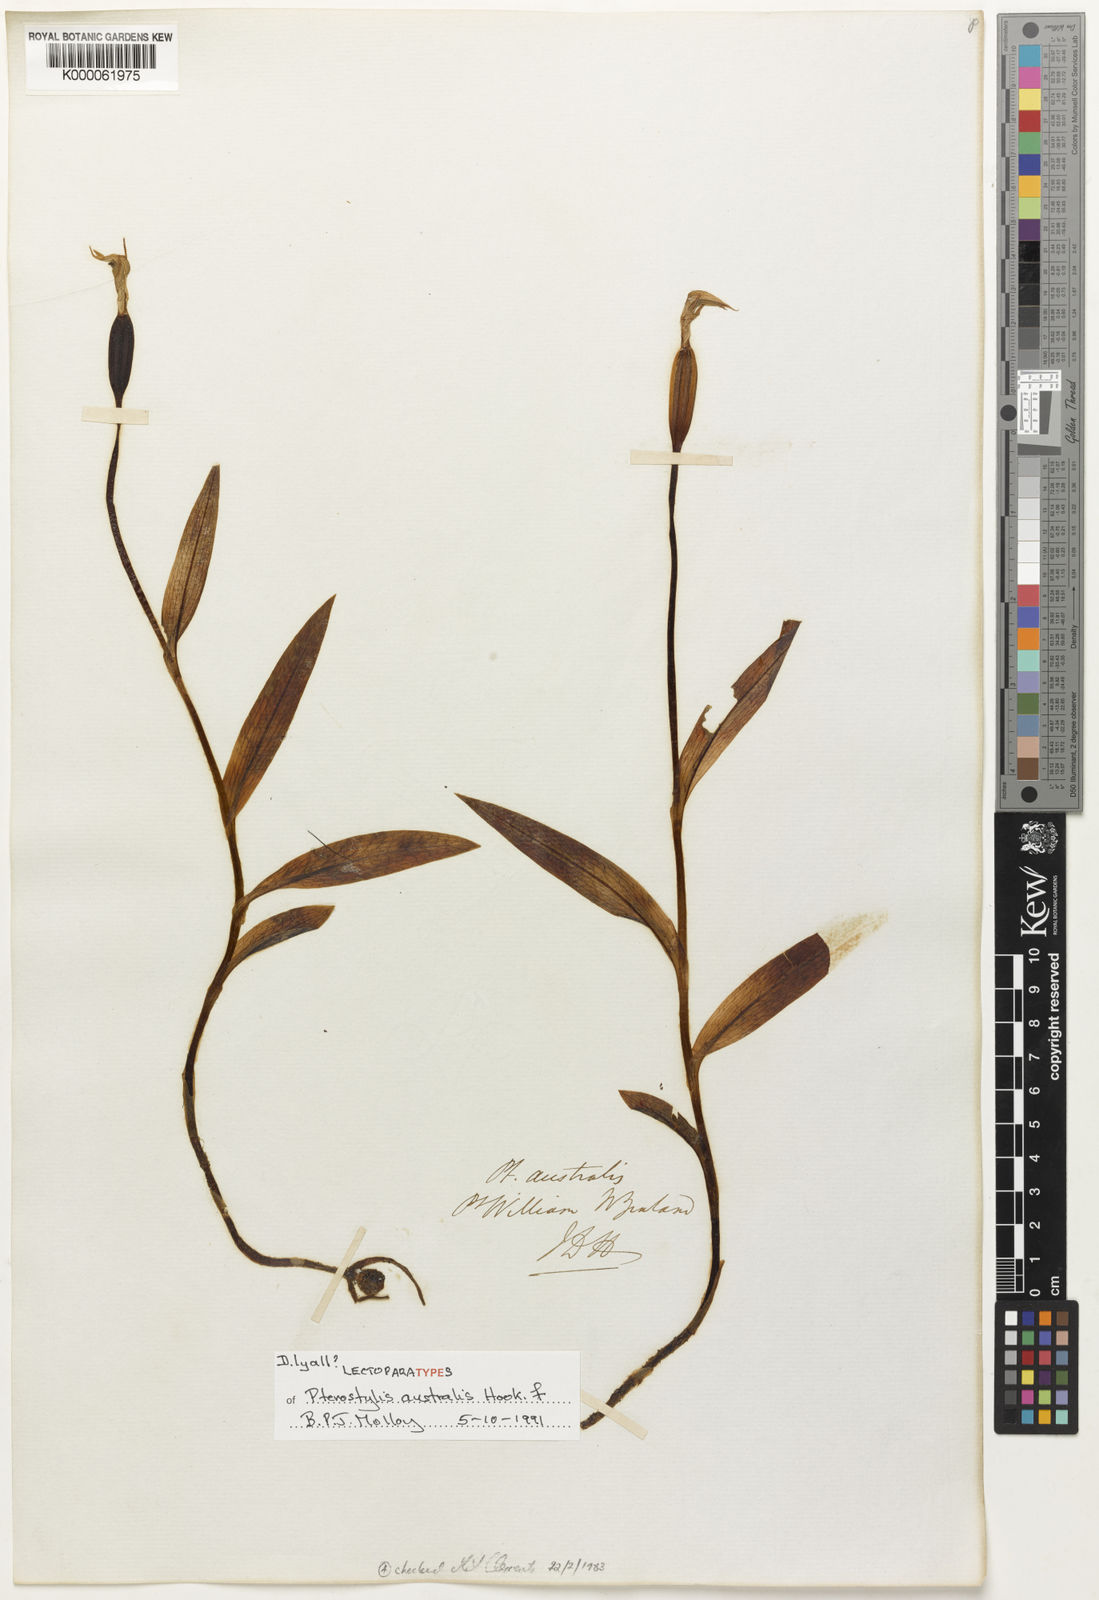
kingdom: Plantae
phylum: Tracheophyta
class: Liliopsida
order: Asparagales
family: Orchidaceae
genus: Pterostylis
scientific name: Pterostylis australis
